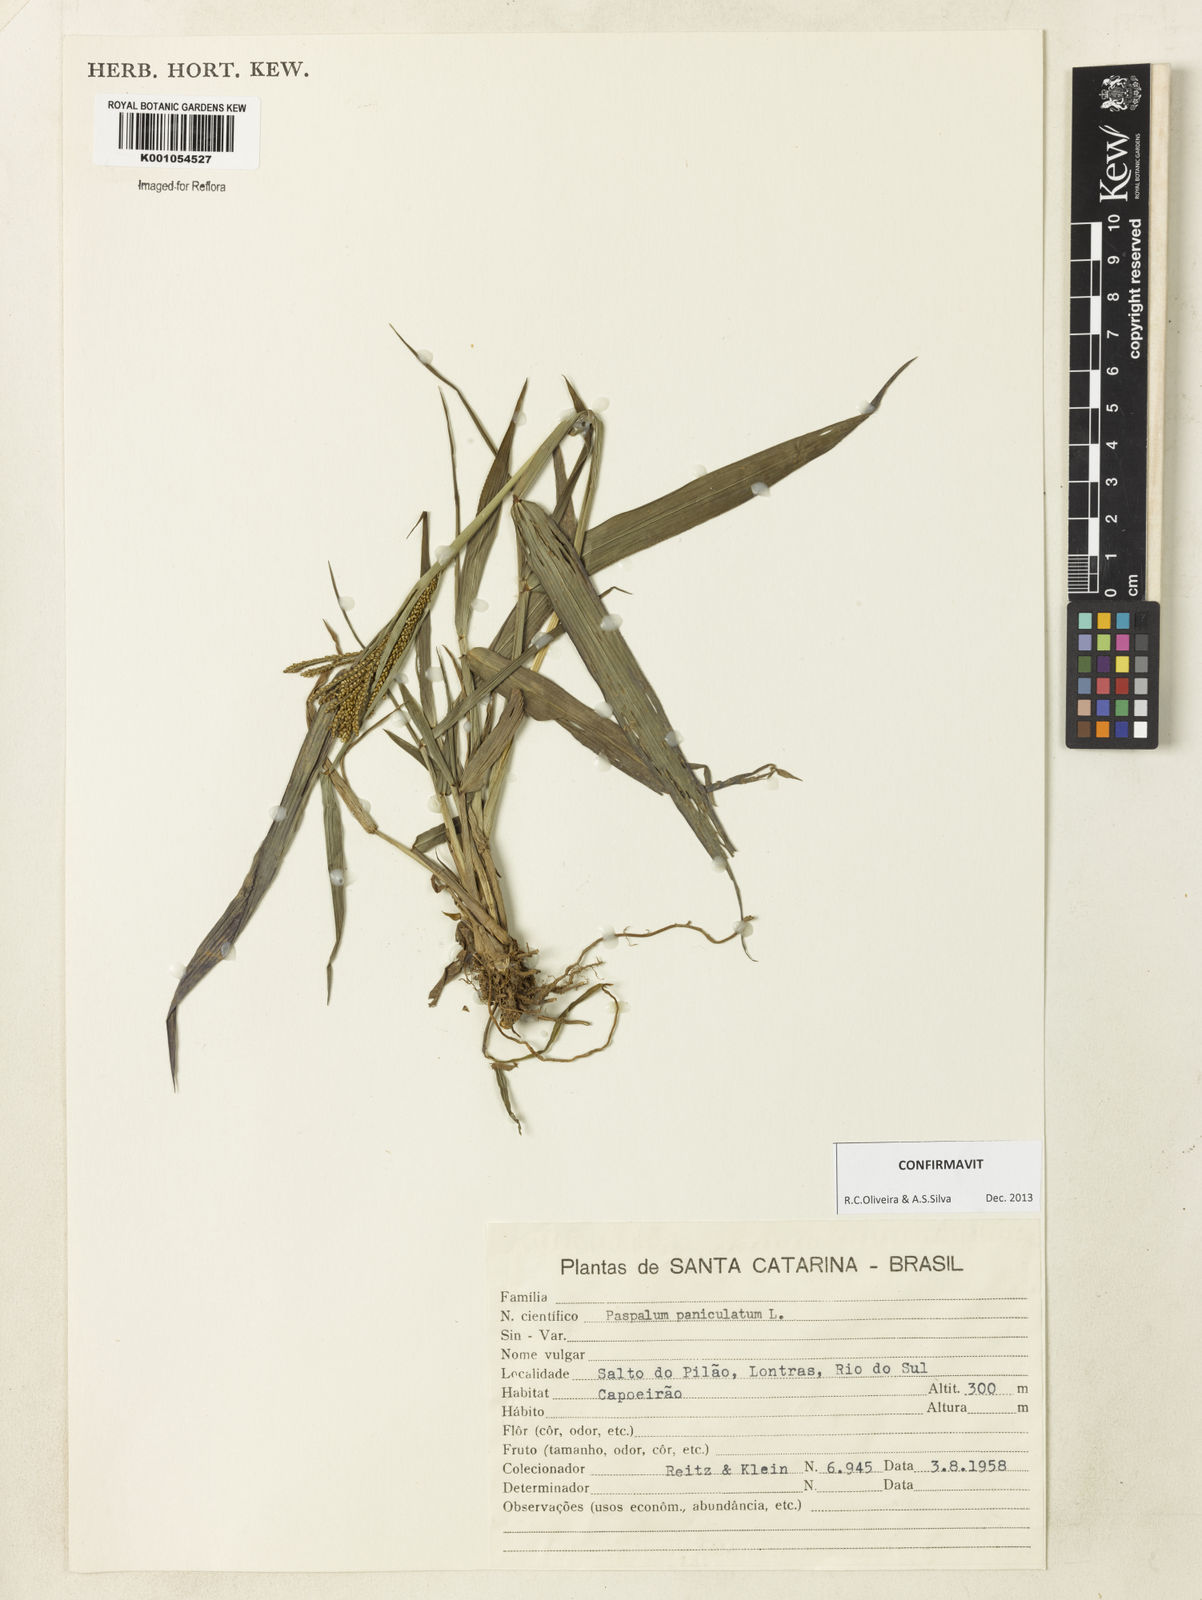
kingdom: Plantae
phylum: Tracheophyta
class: Liliopsida
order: Poales
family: Poaceae
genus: Paspalum
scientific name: Paspalum paniculatum
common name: Arrocillo
